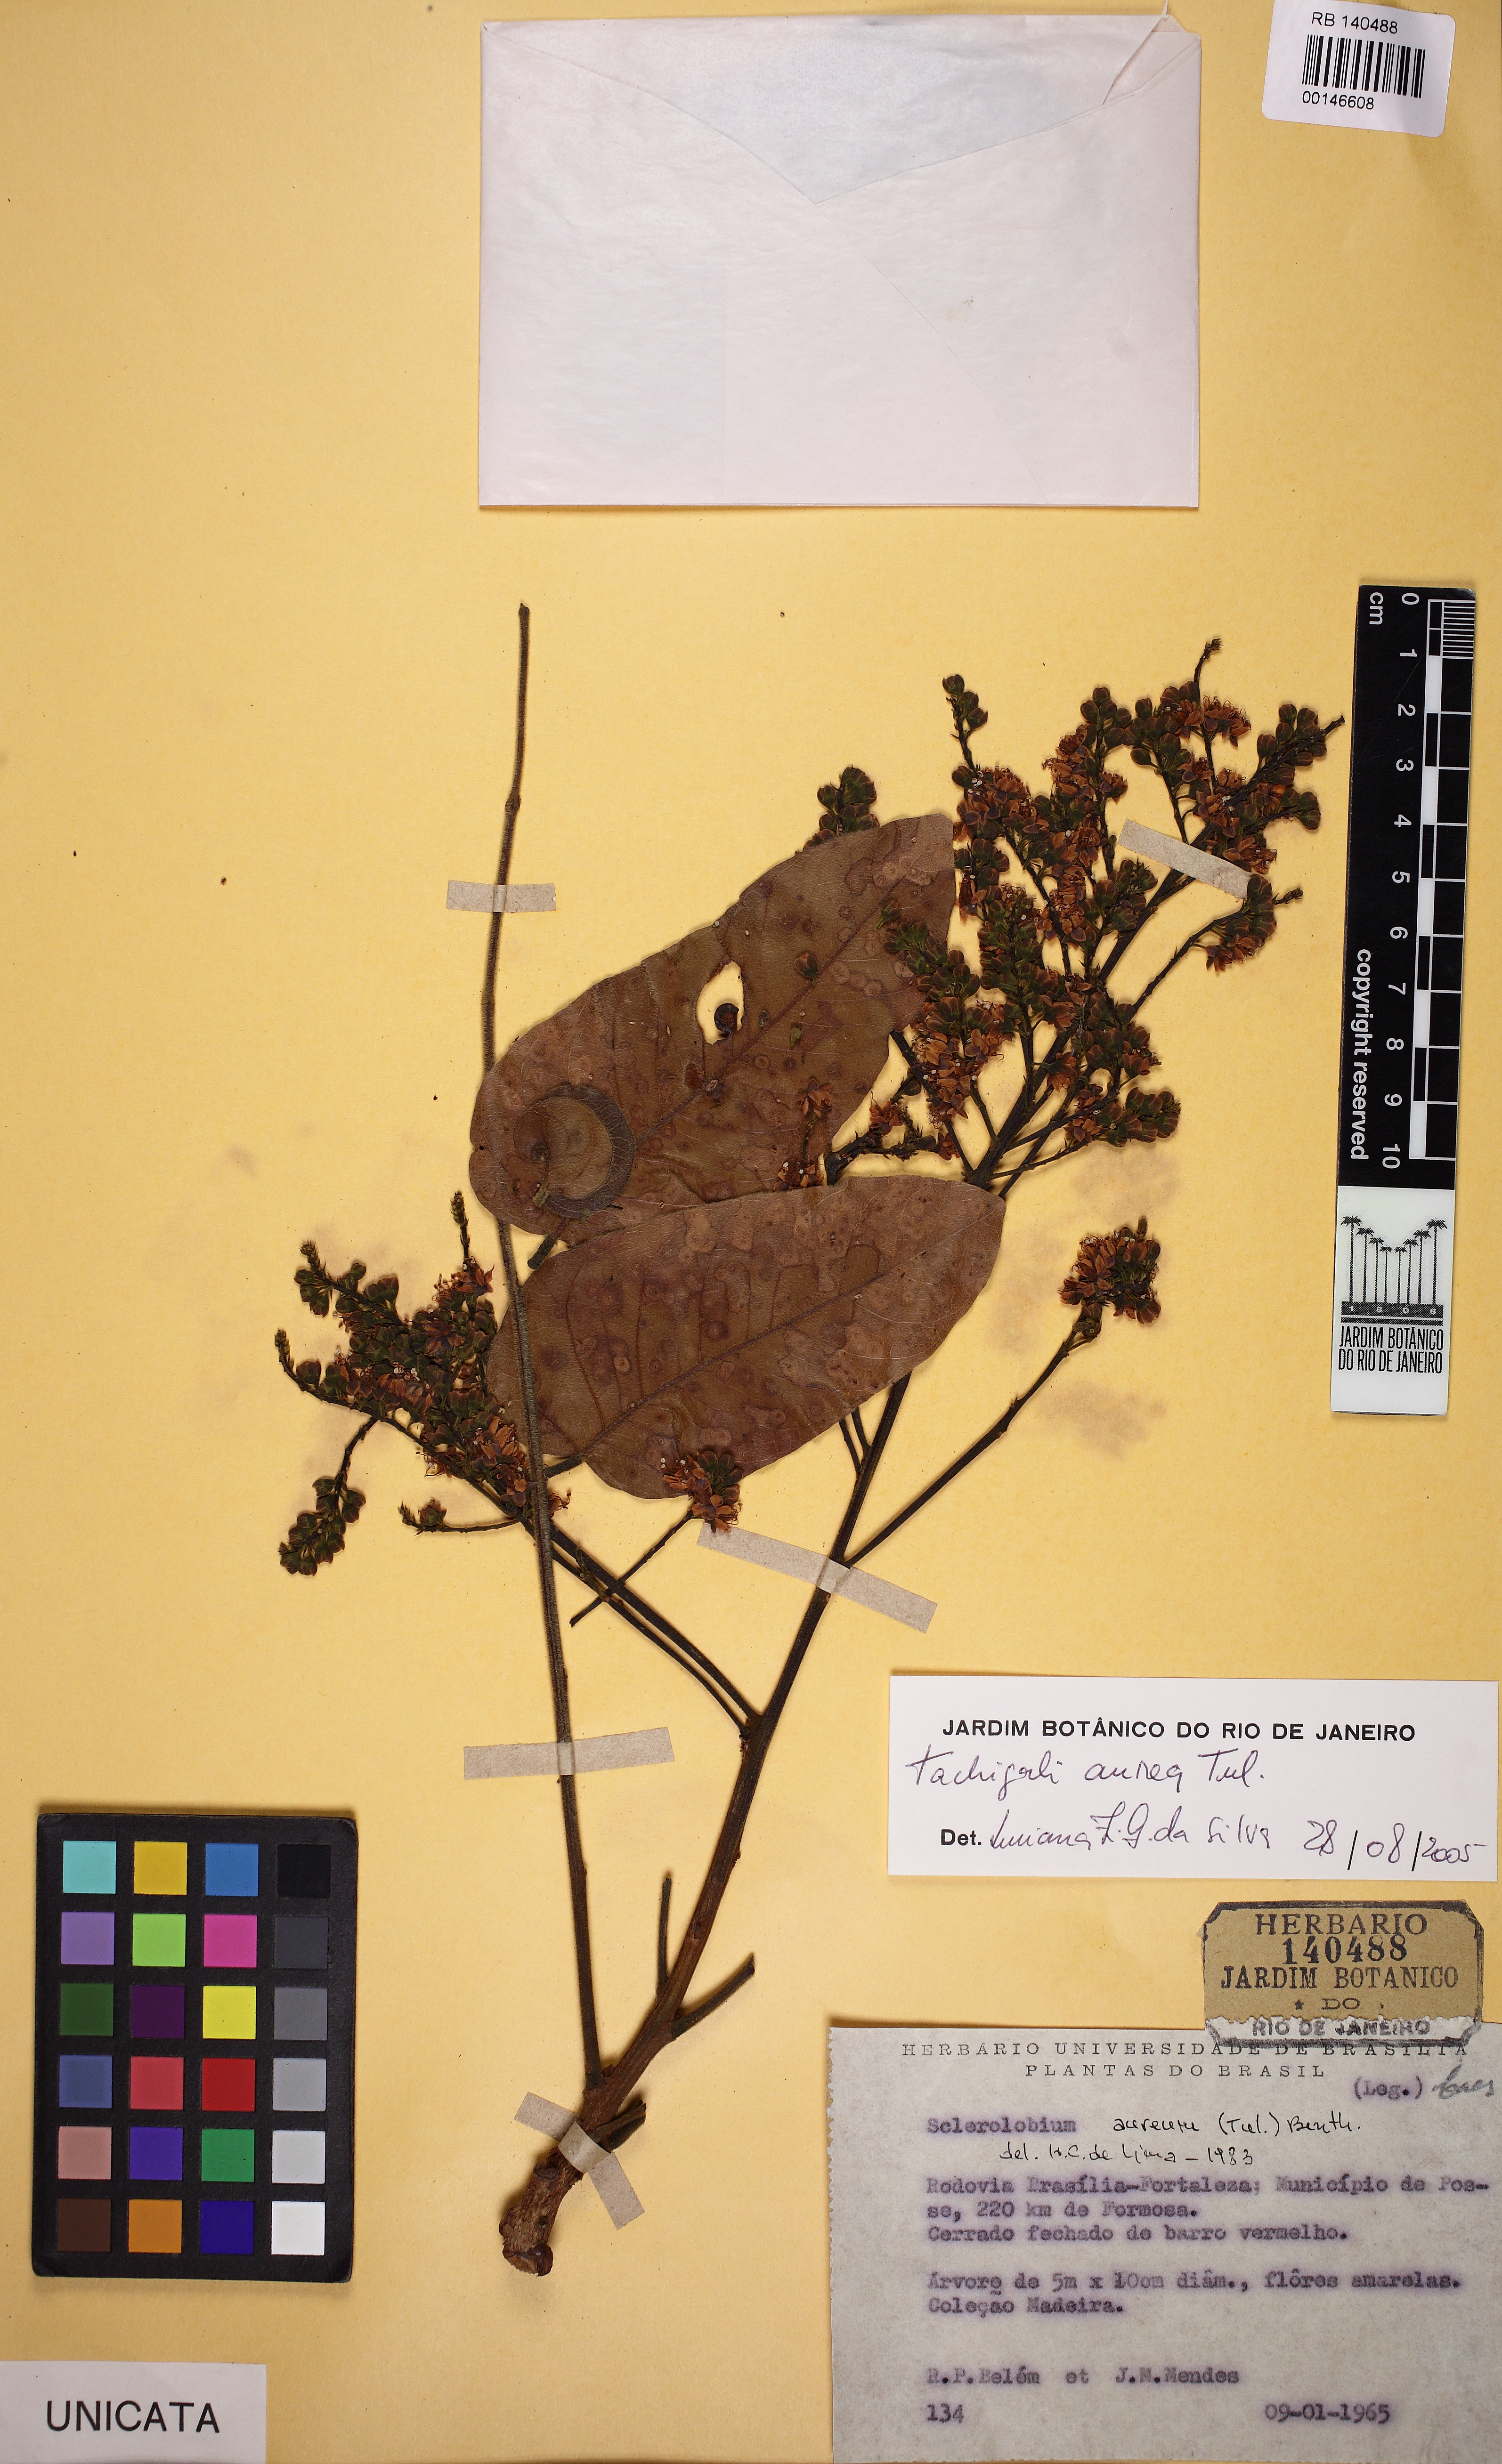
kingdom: Plantae
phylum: Tracheophyta
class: Magnoliopsida
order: Fabales
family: Fabaceae
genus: Tachigali
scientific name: Tachigali aurea
